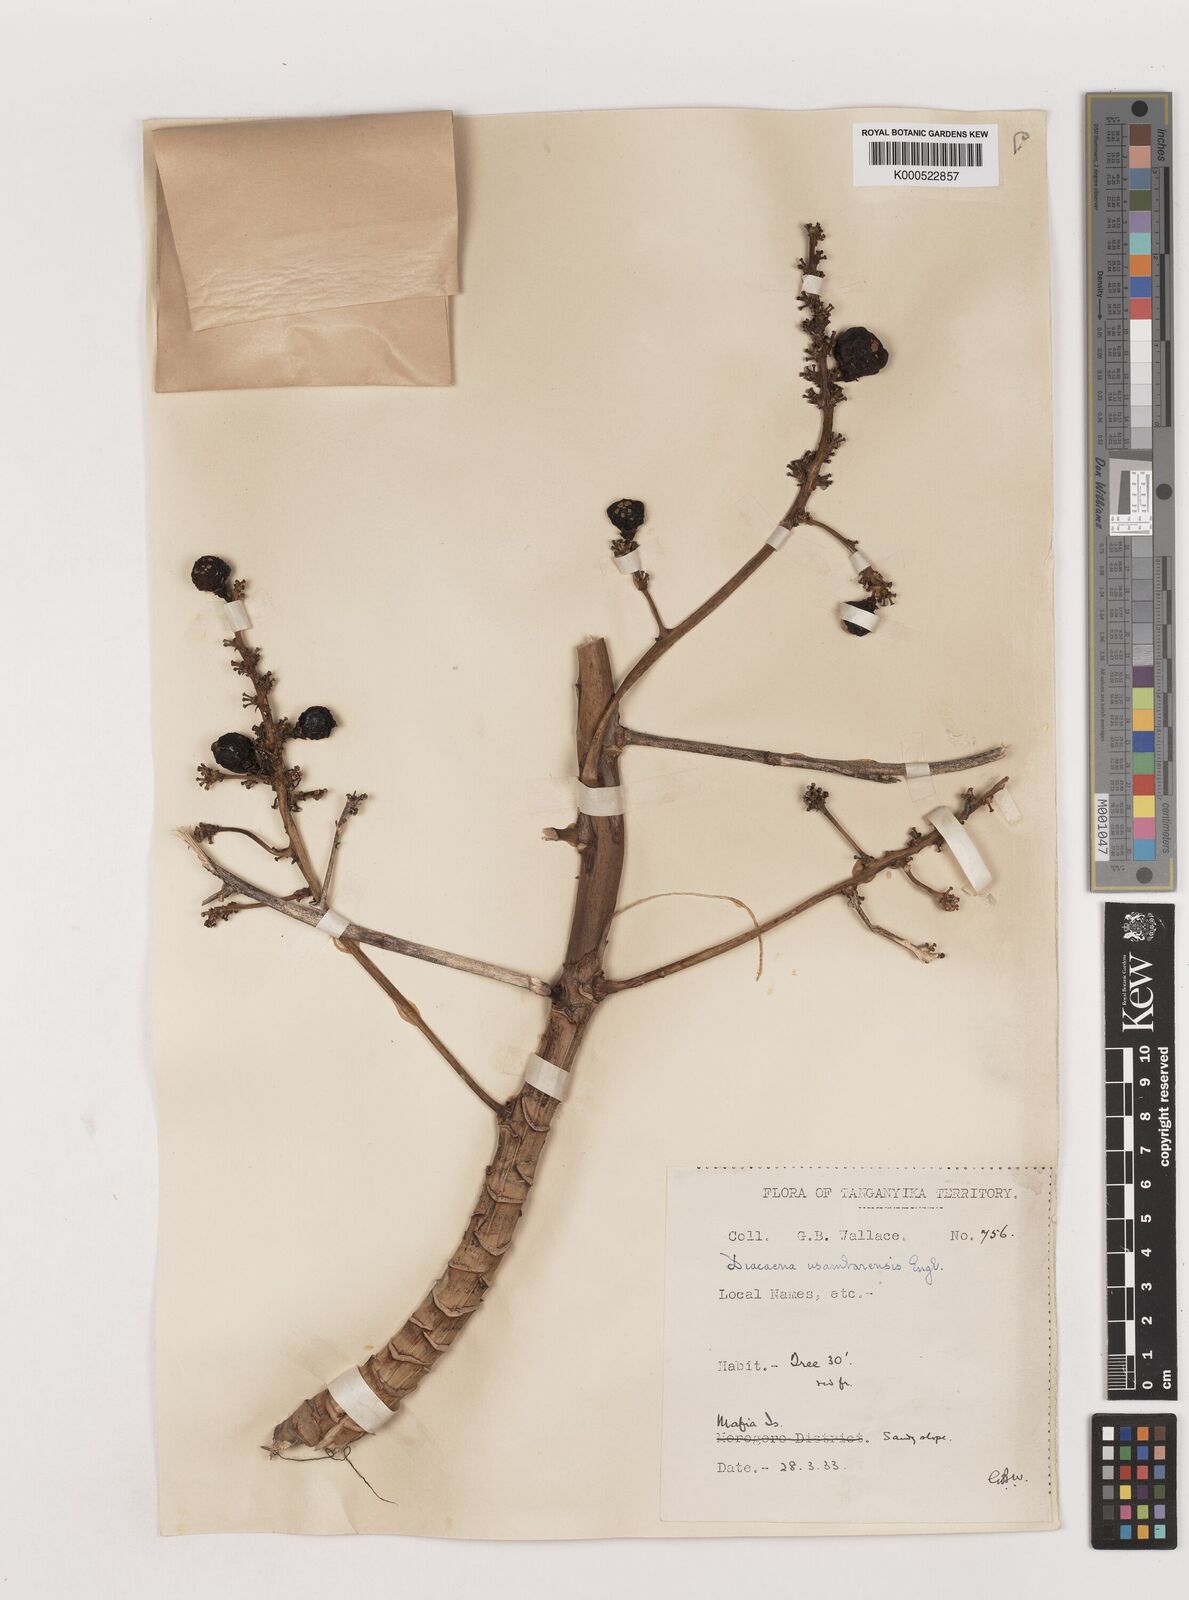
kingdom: Plantae
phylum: Tracheophyta
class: Liliopsida
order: Asparagales
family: Asparagaceae
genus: Dracaena
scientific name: Dracaena usambarensis
